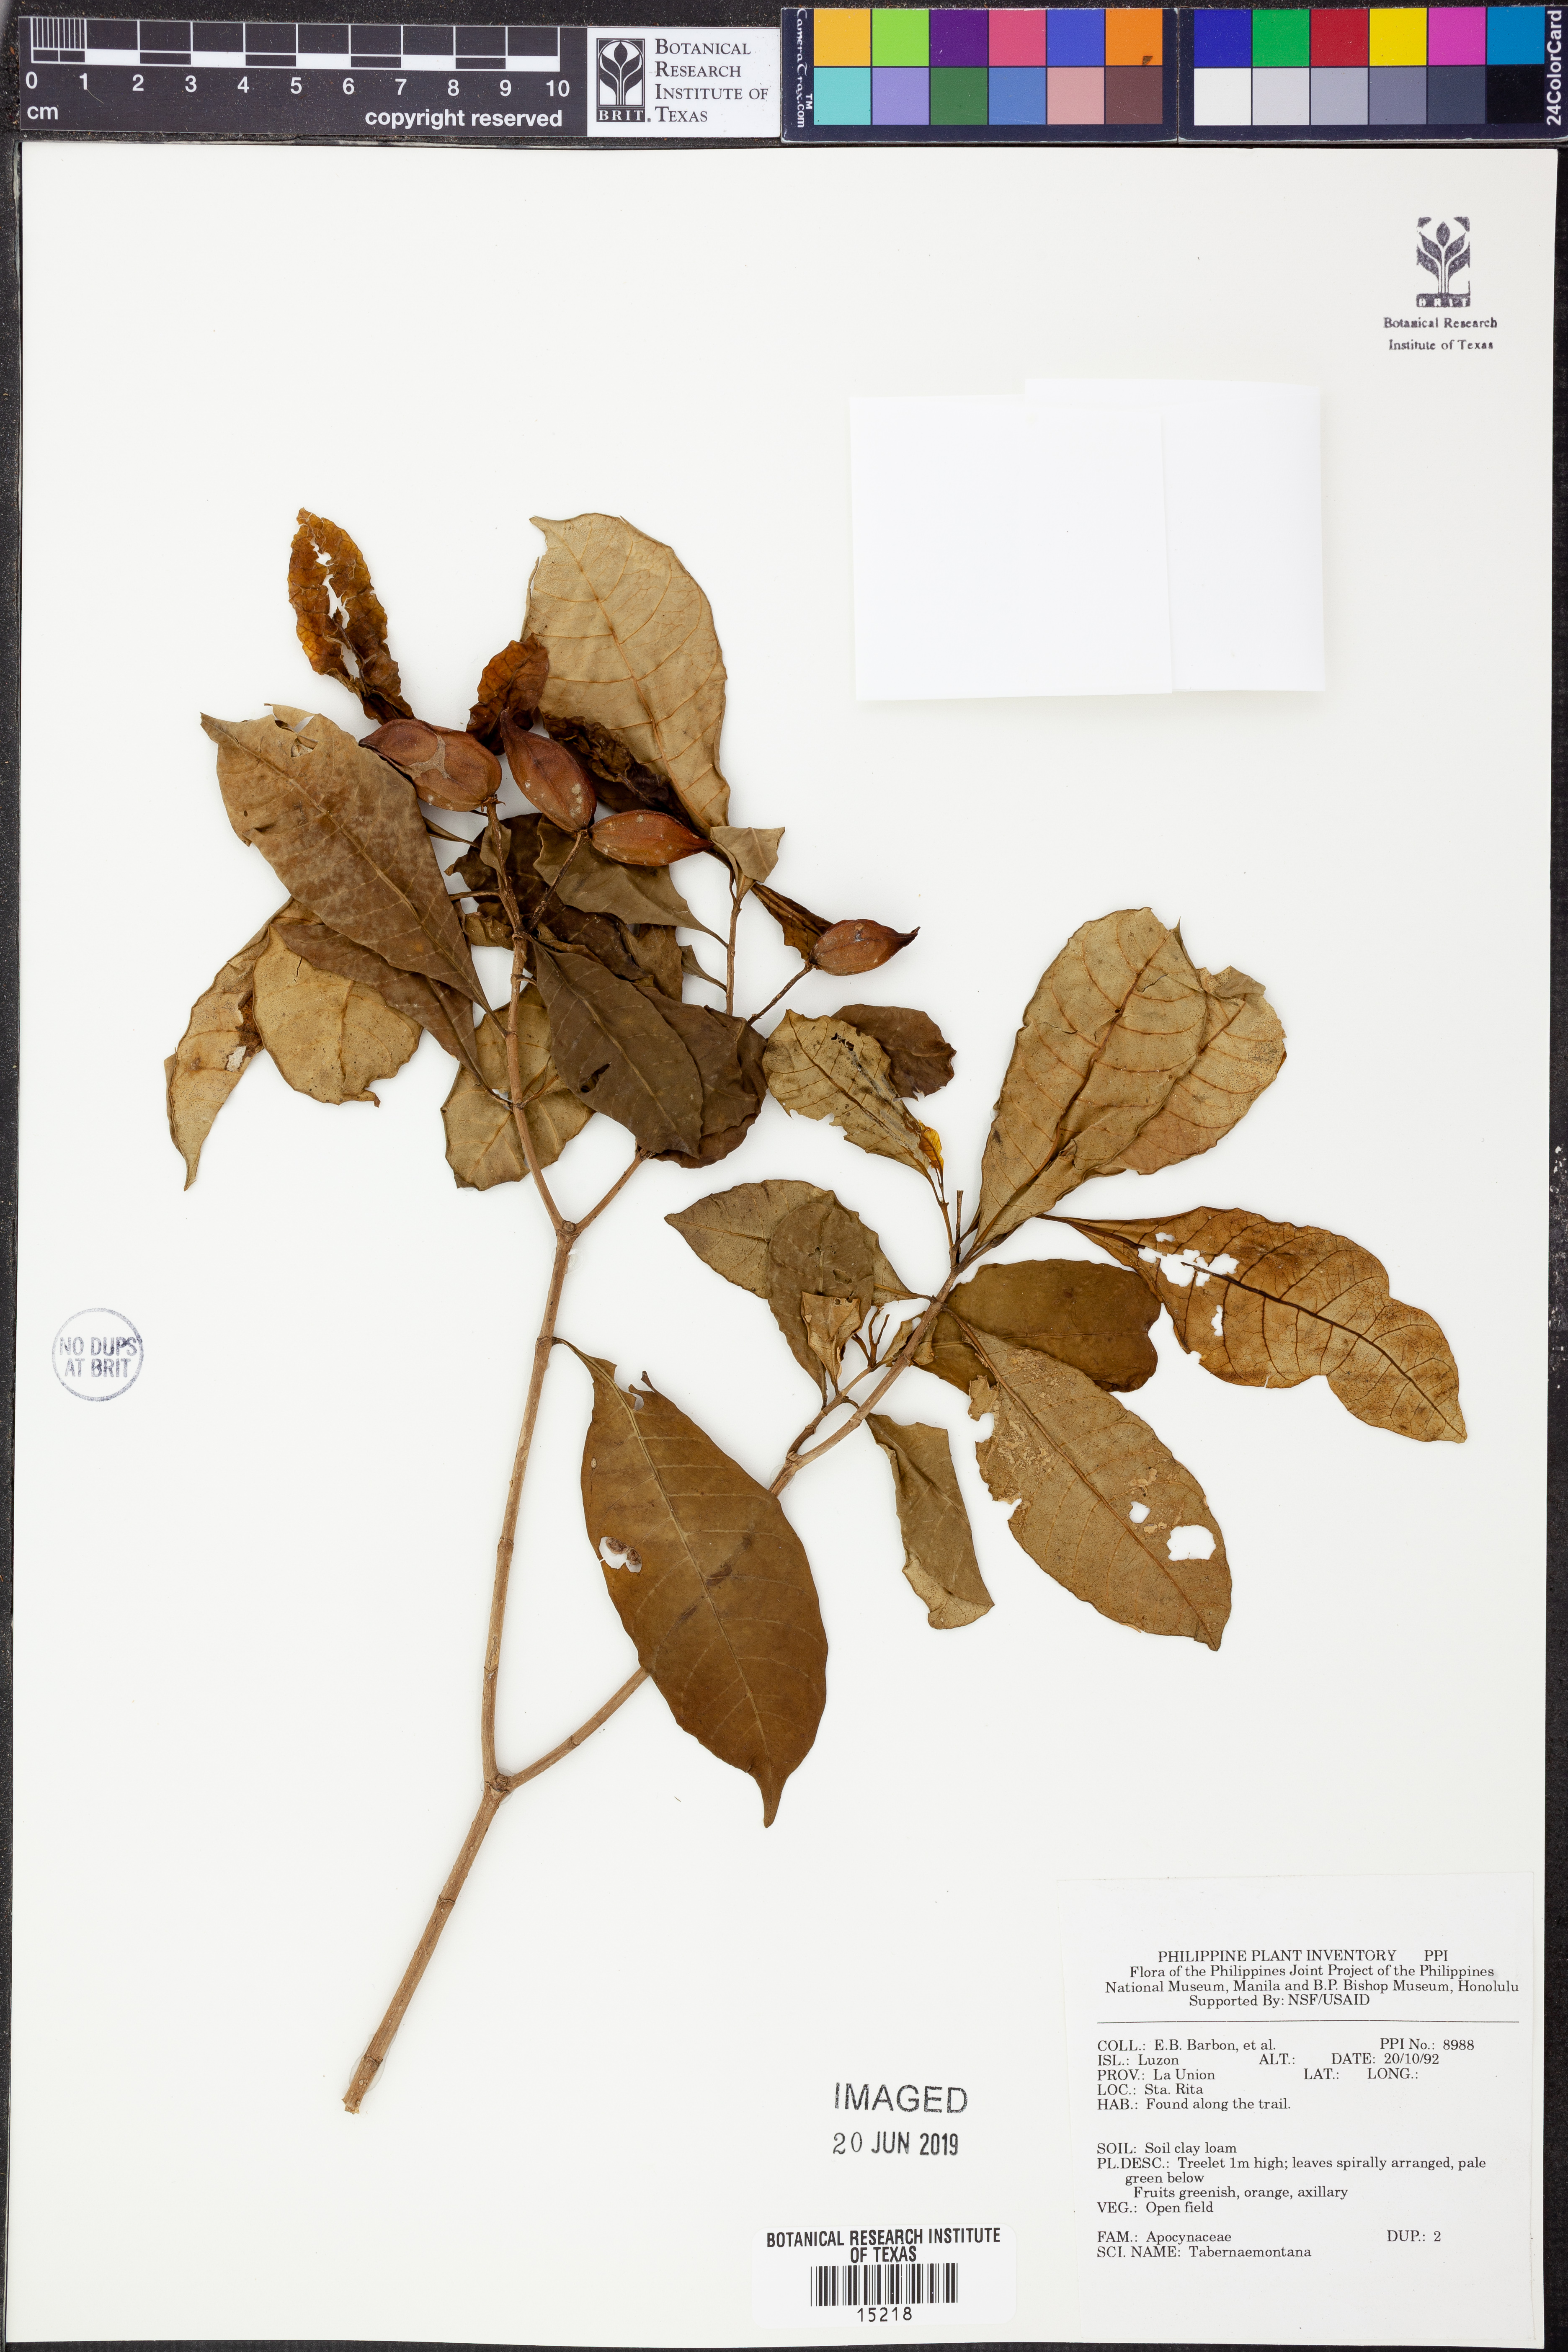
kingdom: Plantae
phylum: Tracheophyta
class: Magnoliopsida
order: Gentianales
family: Apocynaceae
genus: Tabernaemontana
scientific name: Tabernaemontana
